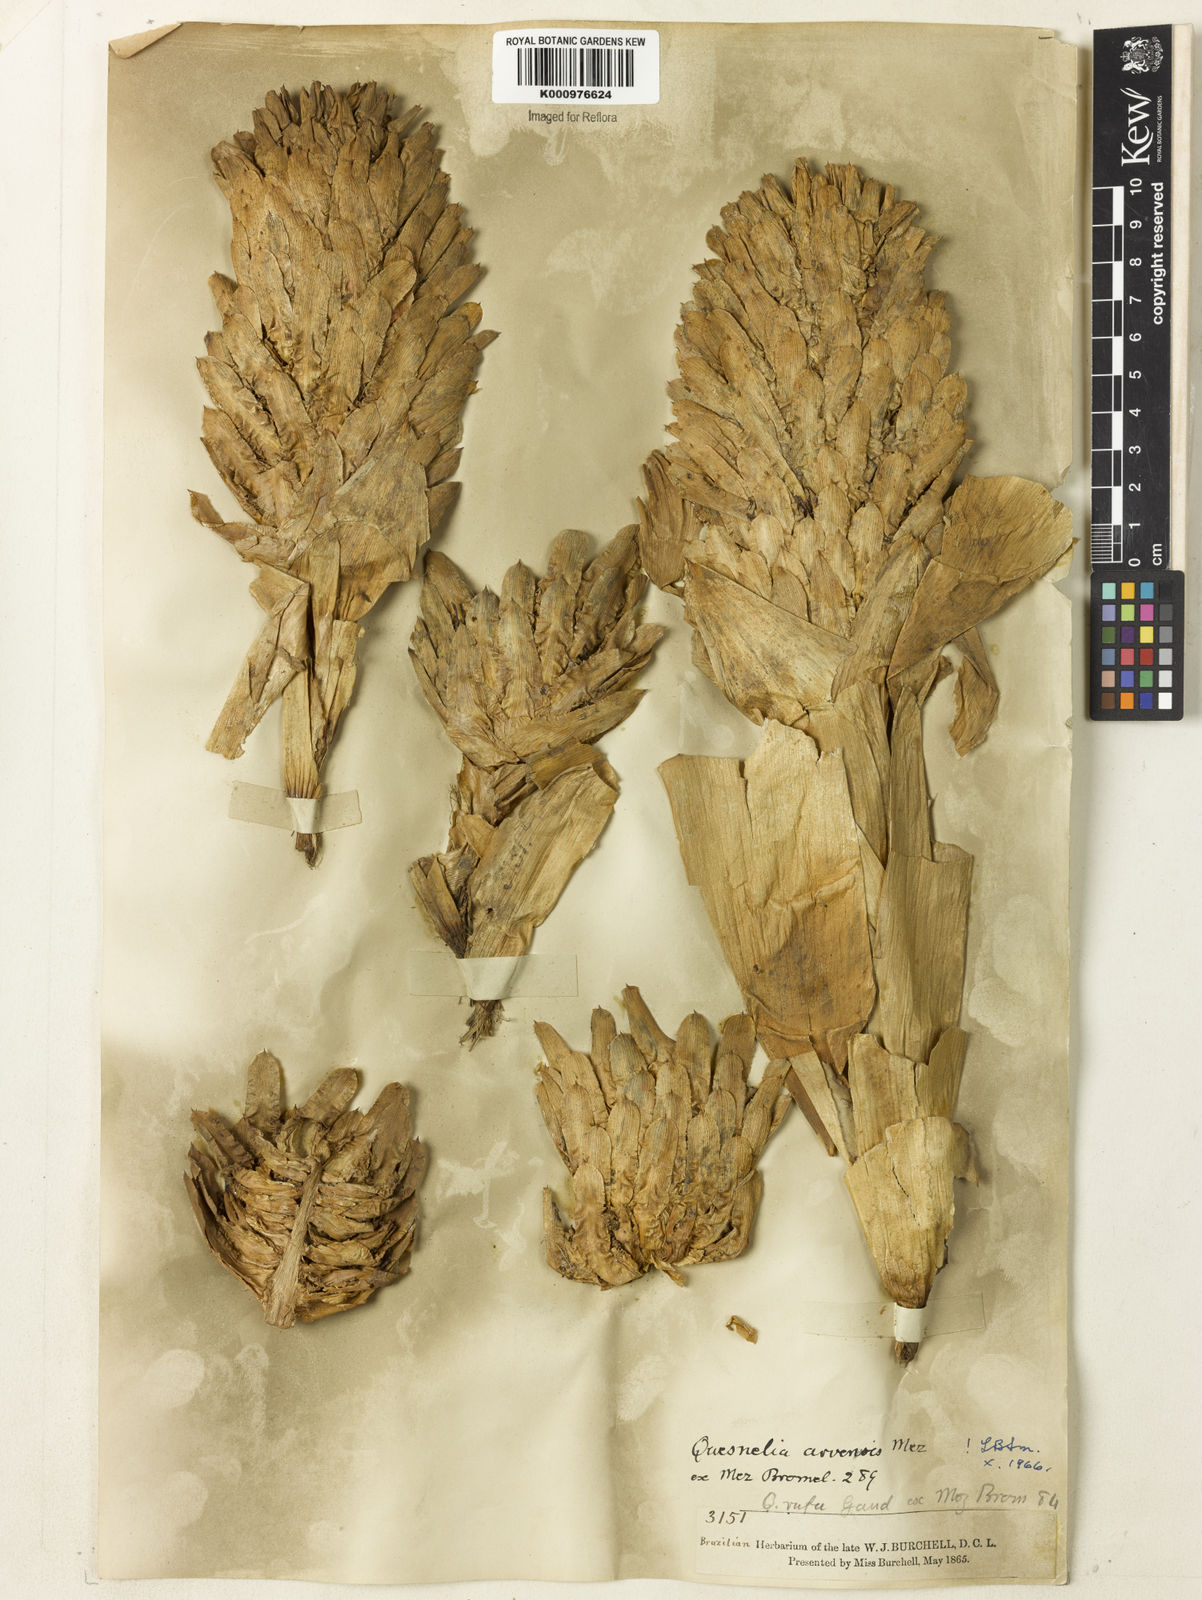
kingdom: Plantae
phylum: Tracheophyta
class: Liliopsida
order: Poales
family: Bromeliaceae
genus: Quesnelia
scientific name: Quesnelia arvensis
